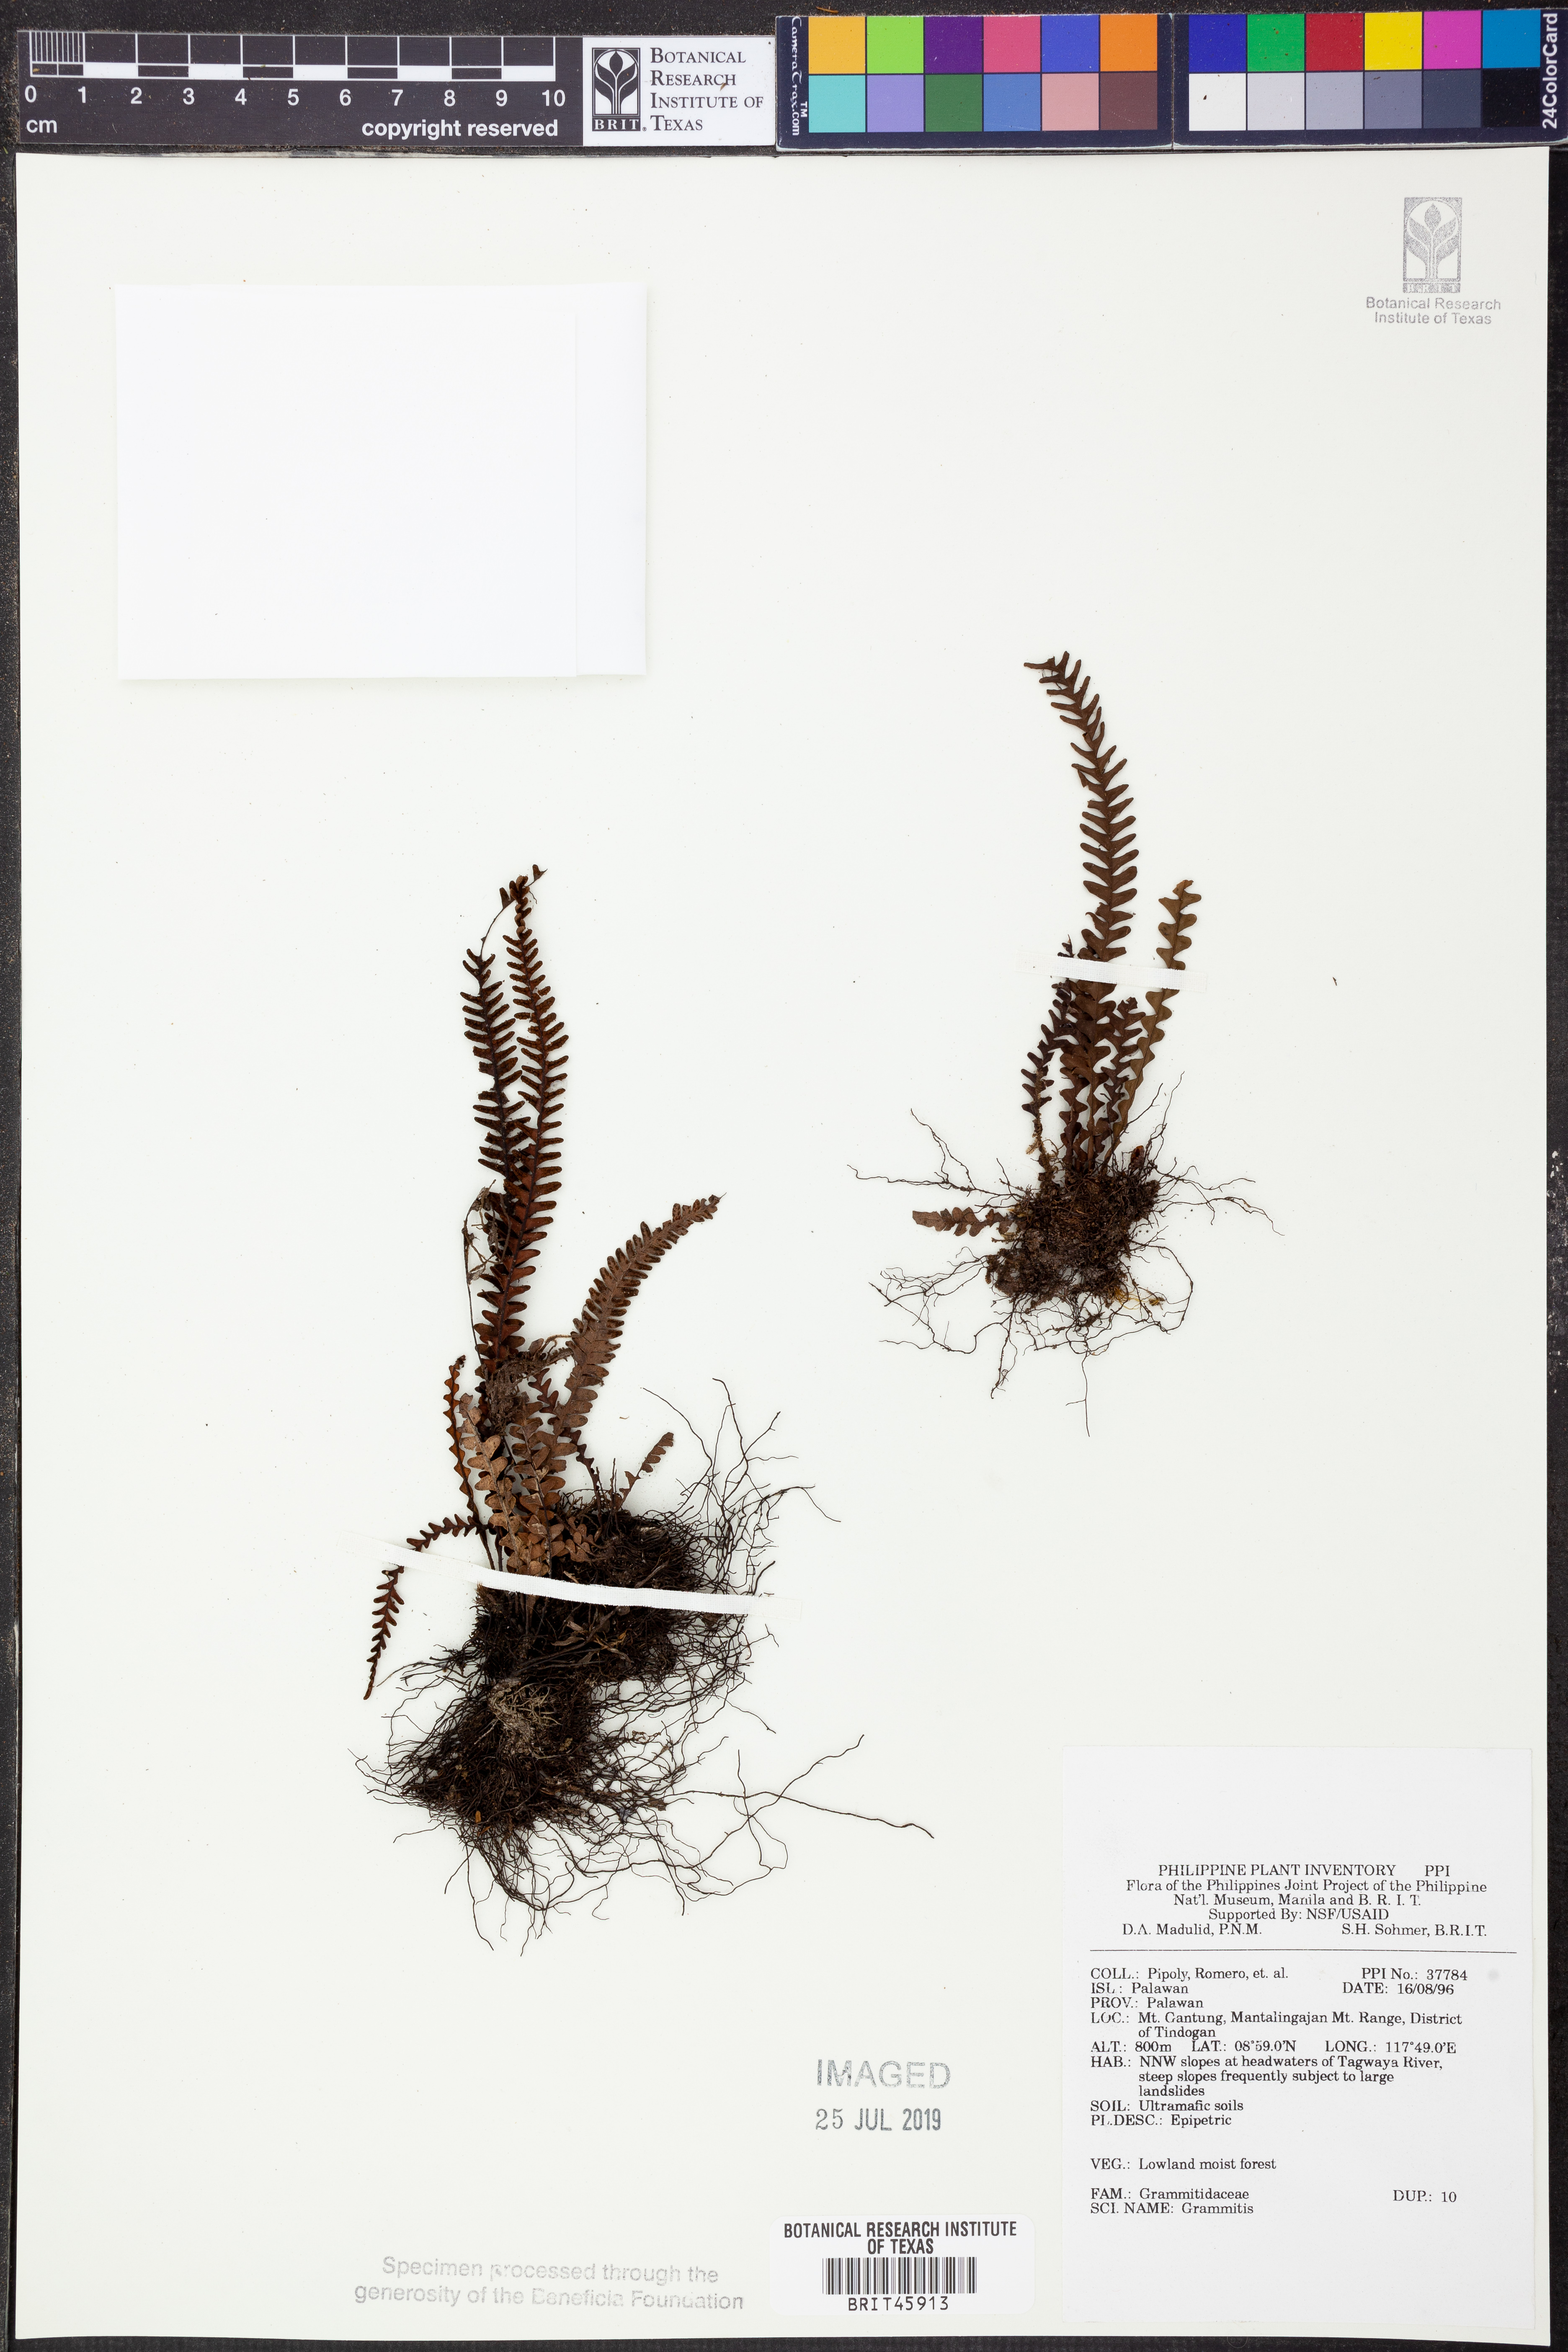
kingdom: Plantae
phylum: Tracheophyta
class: Polypodiopsida
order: Polypodiales
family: Polypodiaceae
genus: Grammitis
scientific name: Grammitis
